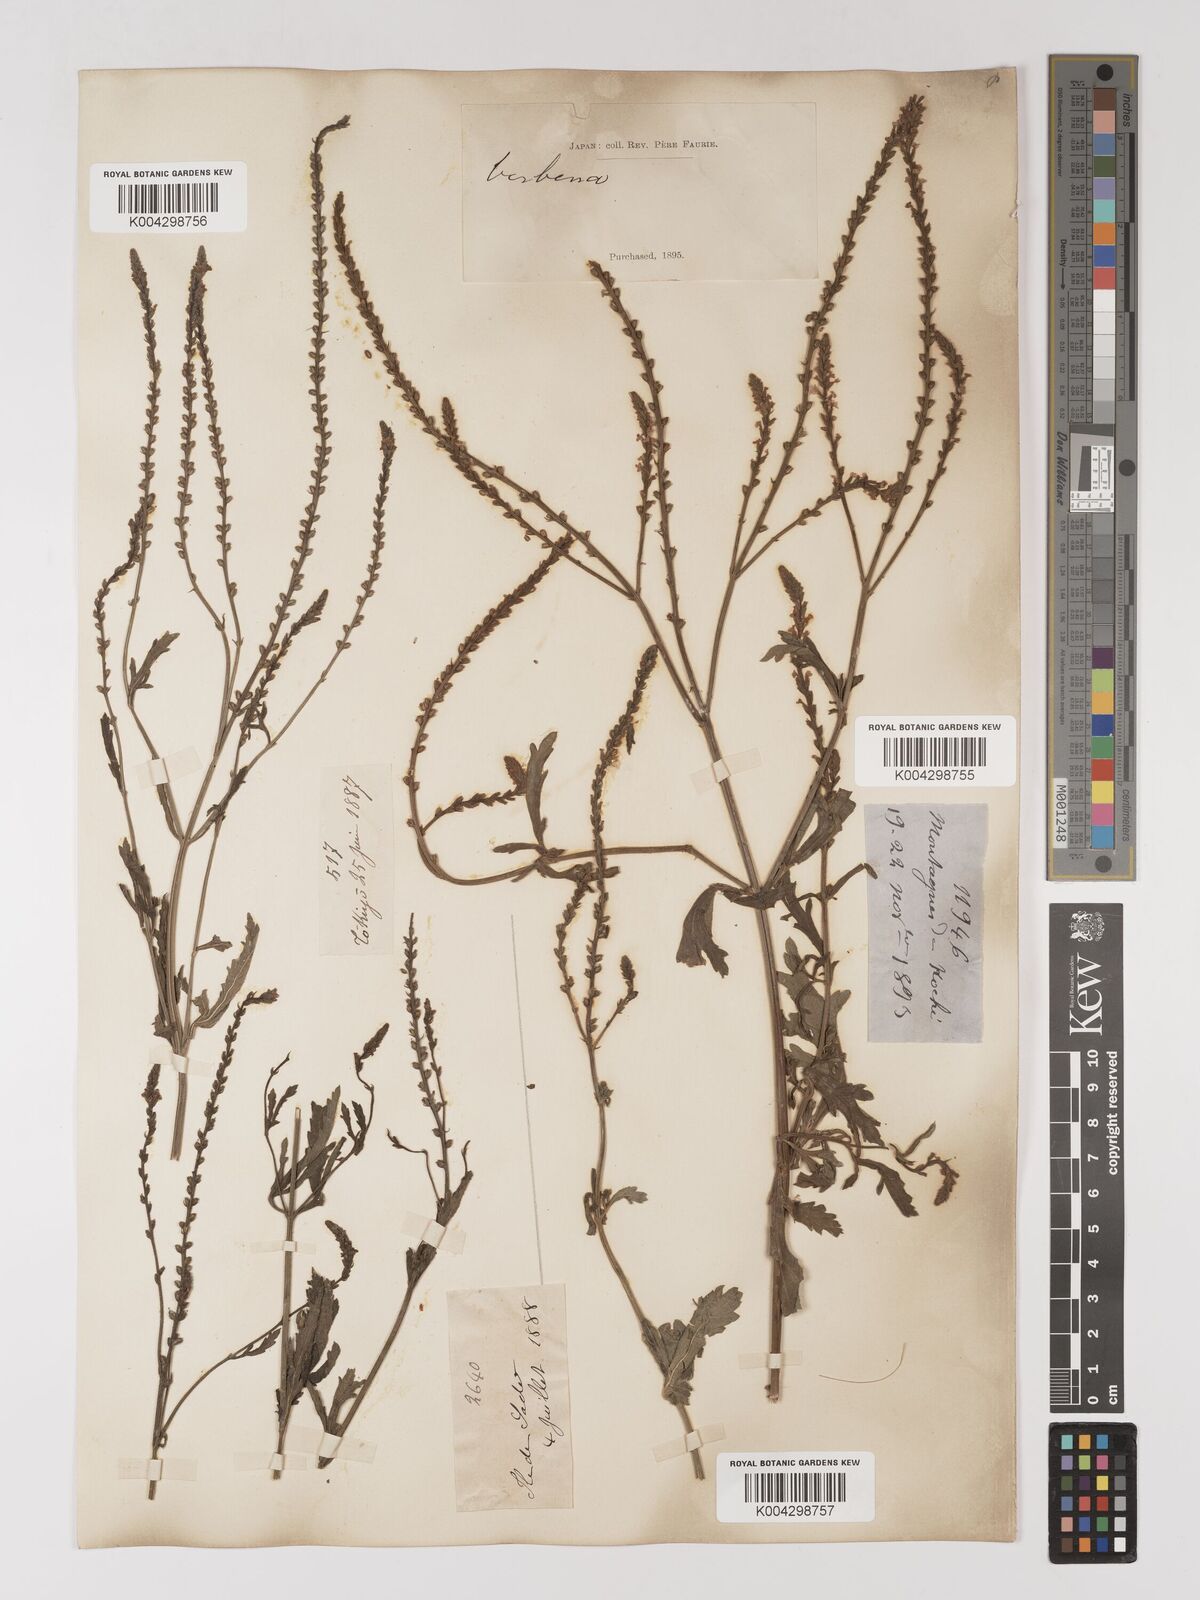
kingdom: Plantae
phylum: Tracheophyta
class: Magnoliopsida
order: Lamiales
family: Verbenaceae
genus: Verbena
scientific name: Verbena officinalis
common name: Vervain
